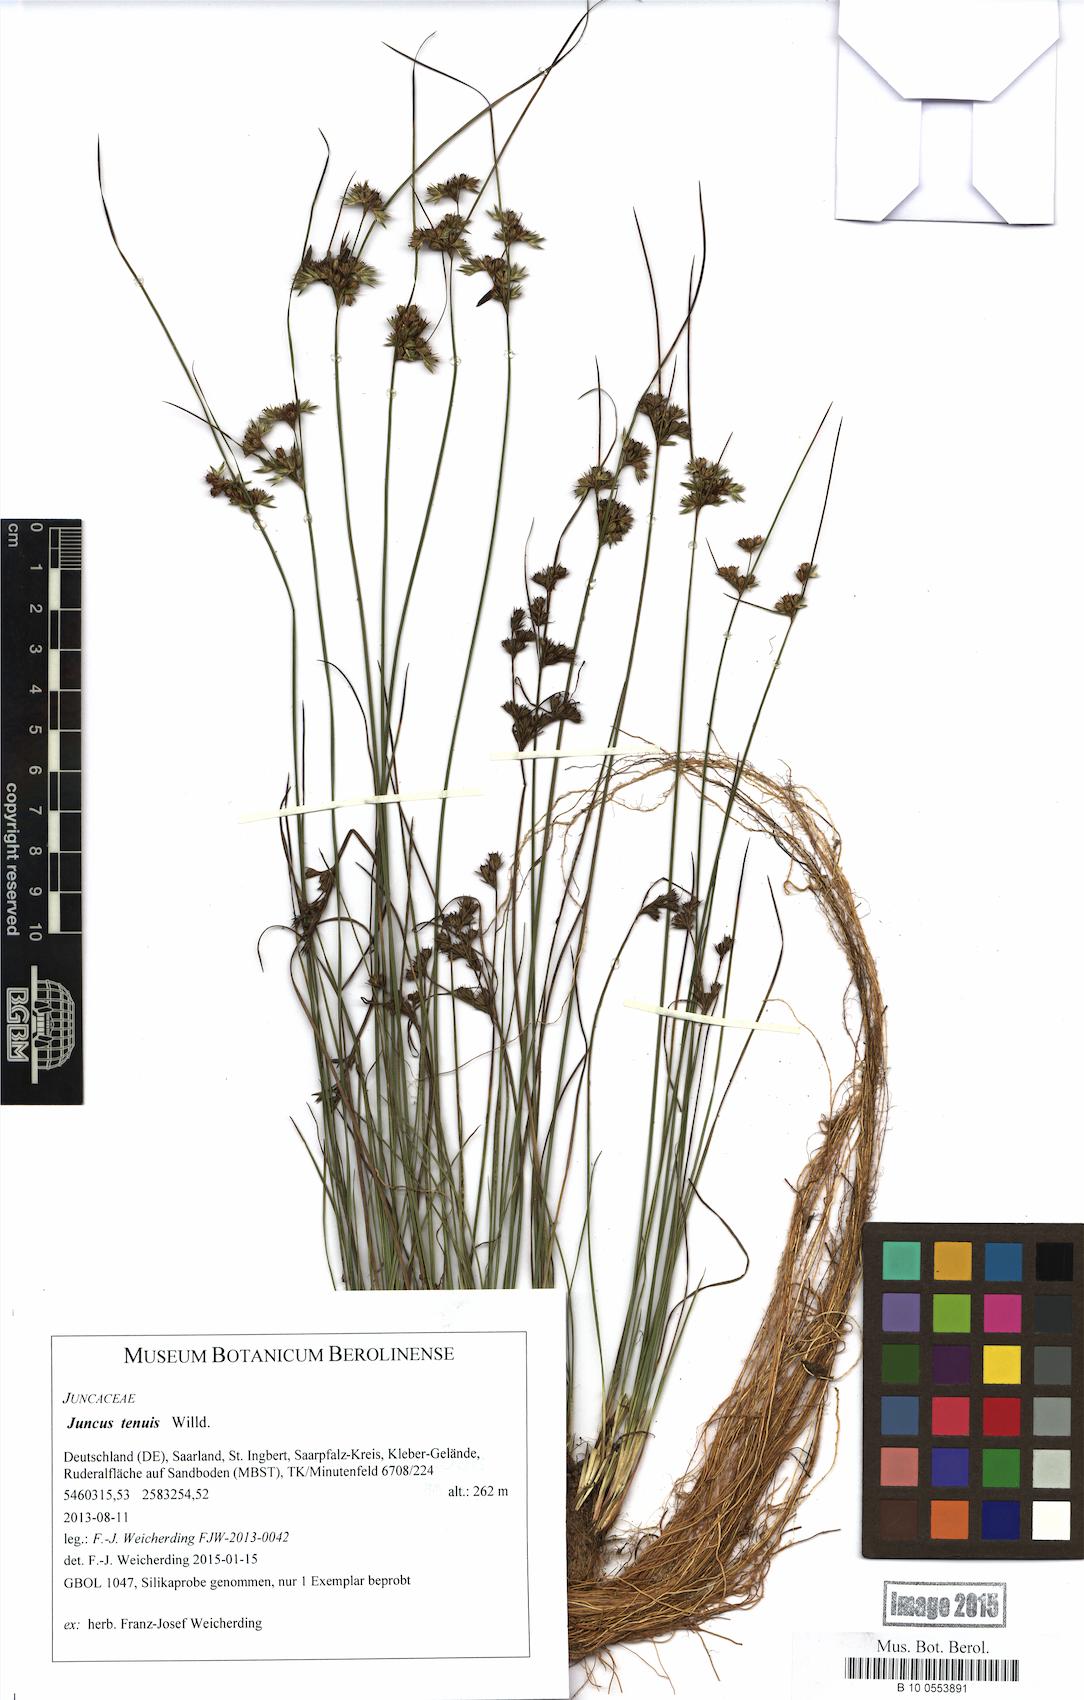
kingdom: Plantae
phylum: Tracheophyta
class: Liliopsida
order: Poales
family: Juncaceae
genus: Juncus
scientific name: Juncus tenuis
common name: Slender rush
